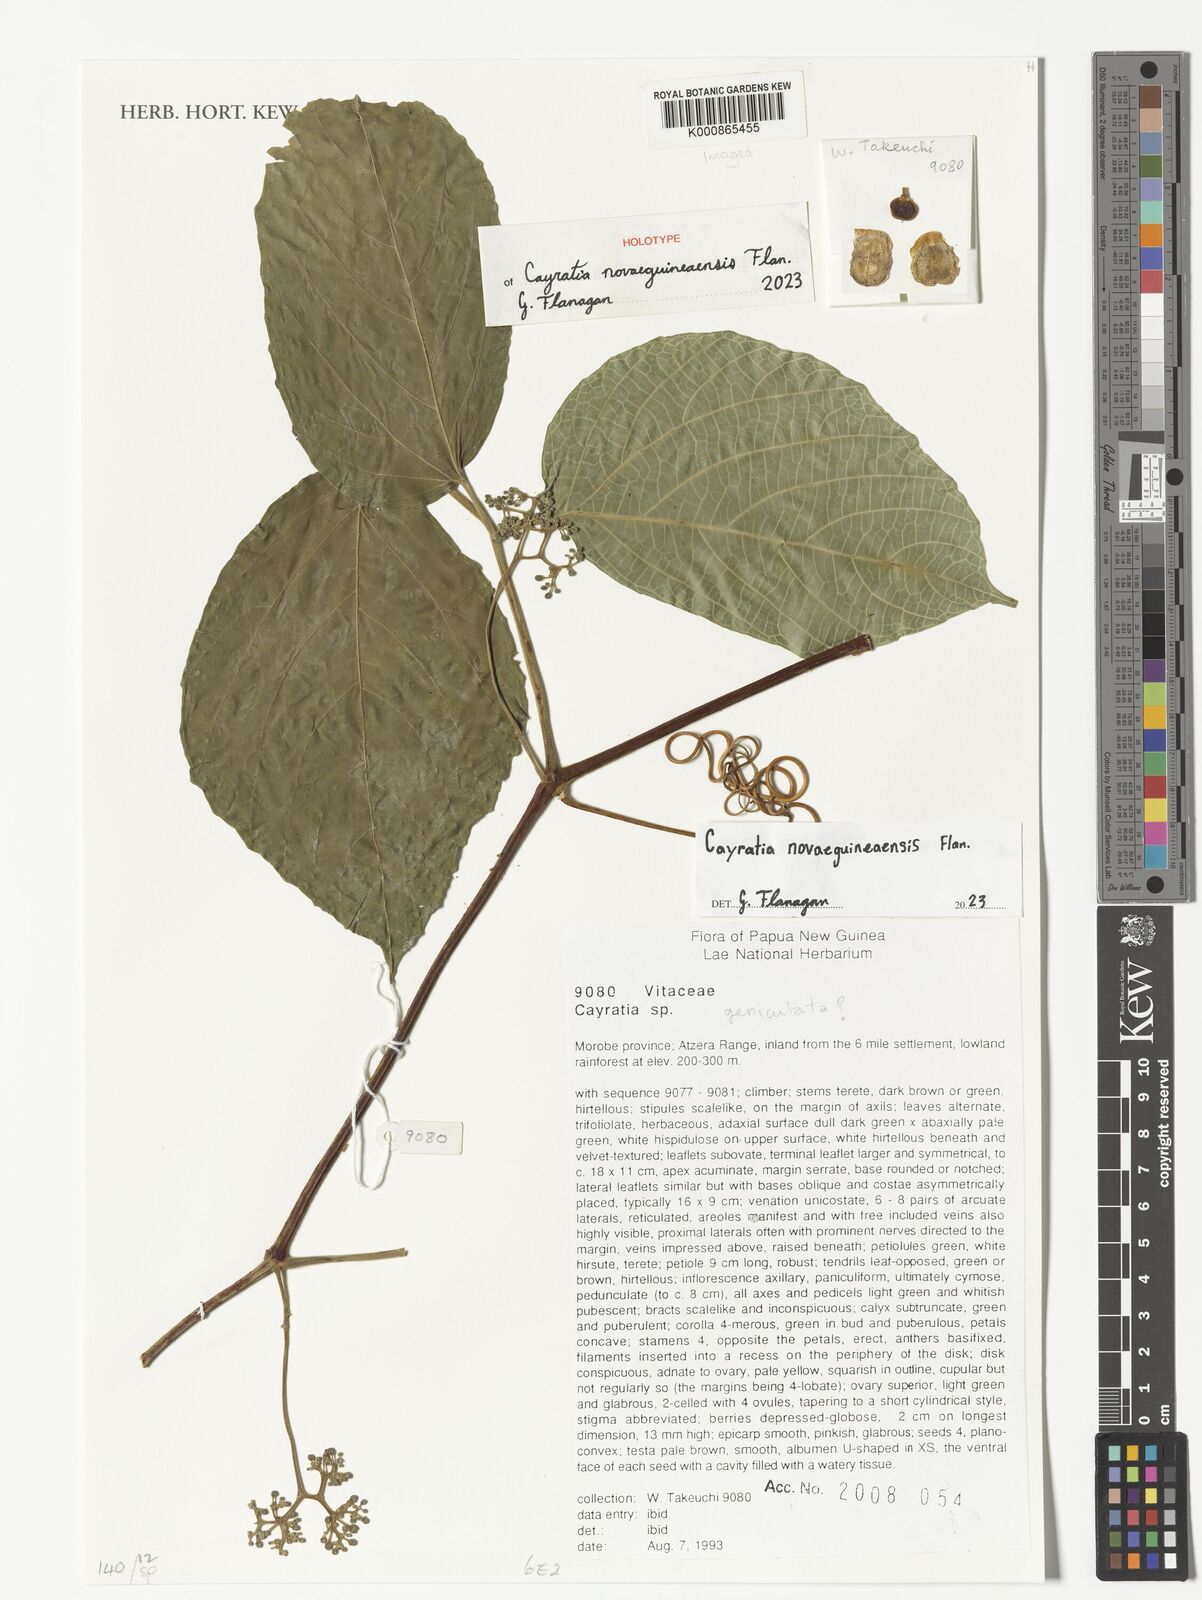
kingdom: Plantae
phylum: Tracheophyta
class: Magnoliopsida
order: Vitales
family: Vitaceae
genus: Cayratia
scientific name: Cayratia
